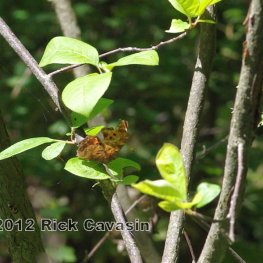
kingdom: Animalia
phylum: Arthropoda
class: Insecta
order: Lepidoptera
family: Nymphalidae
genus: Polygonia
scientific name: Polygonia comma
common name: Eastern Comma
